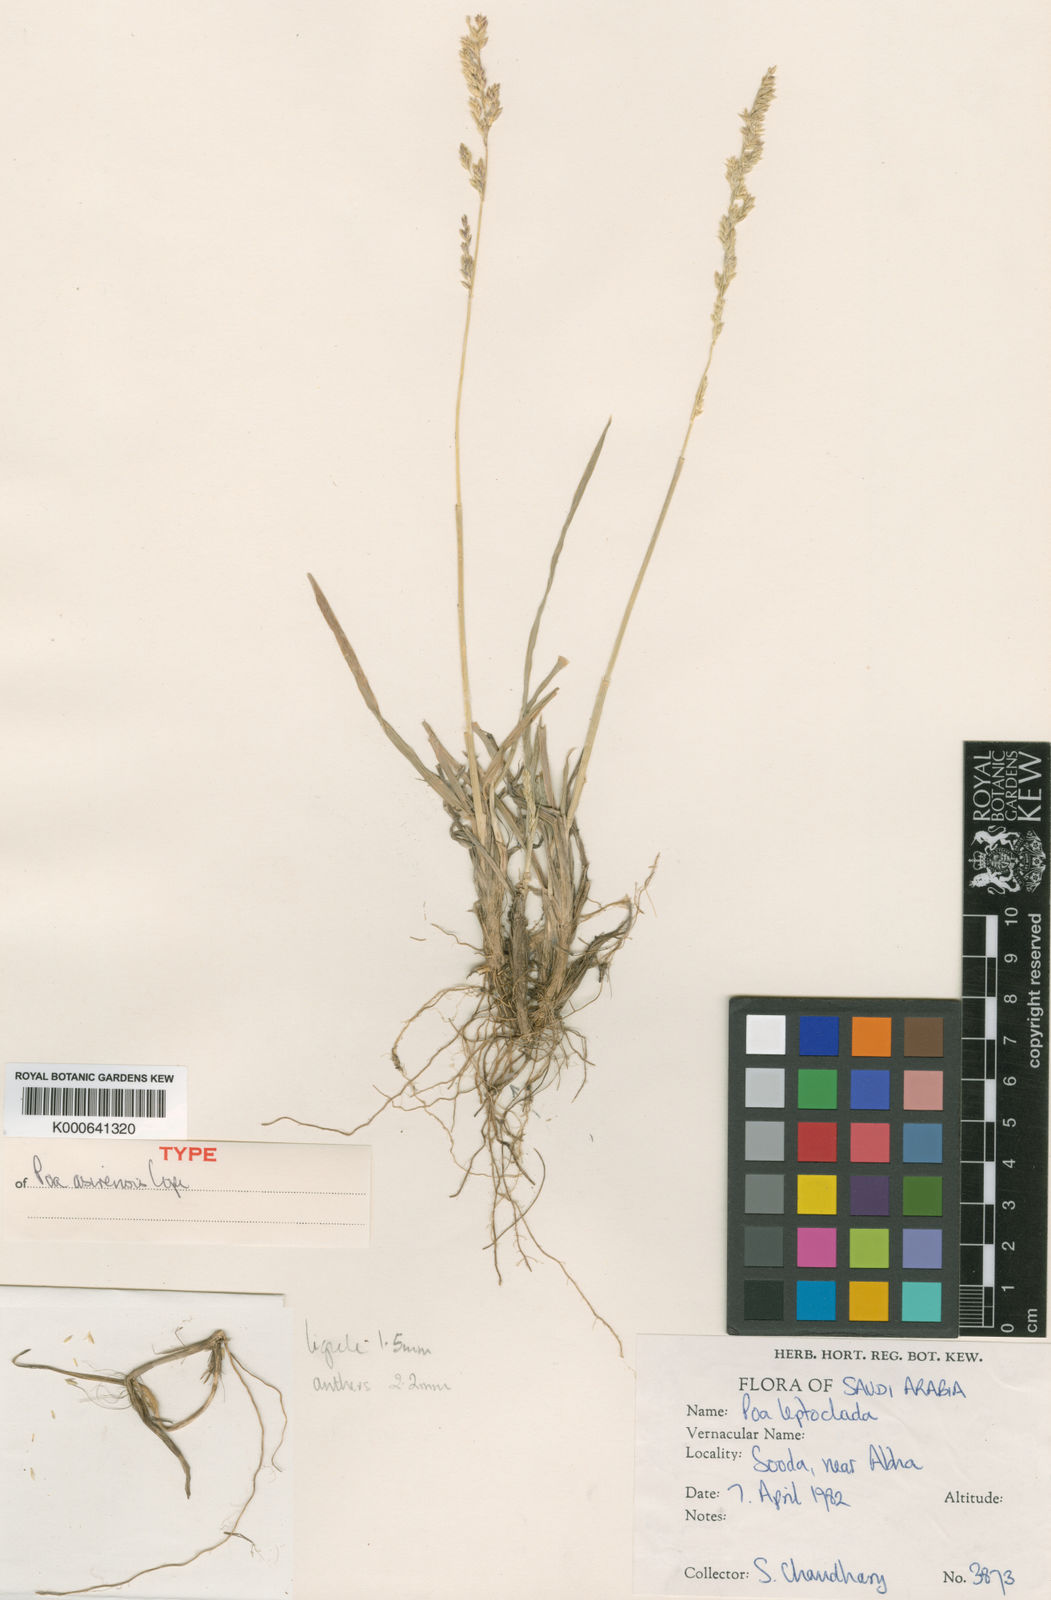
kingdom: Plantae
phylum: Tracheophyta
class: Liliopsida
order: Poales
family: Poaceae
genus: Poa
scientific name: Poa asirensis
